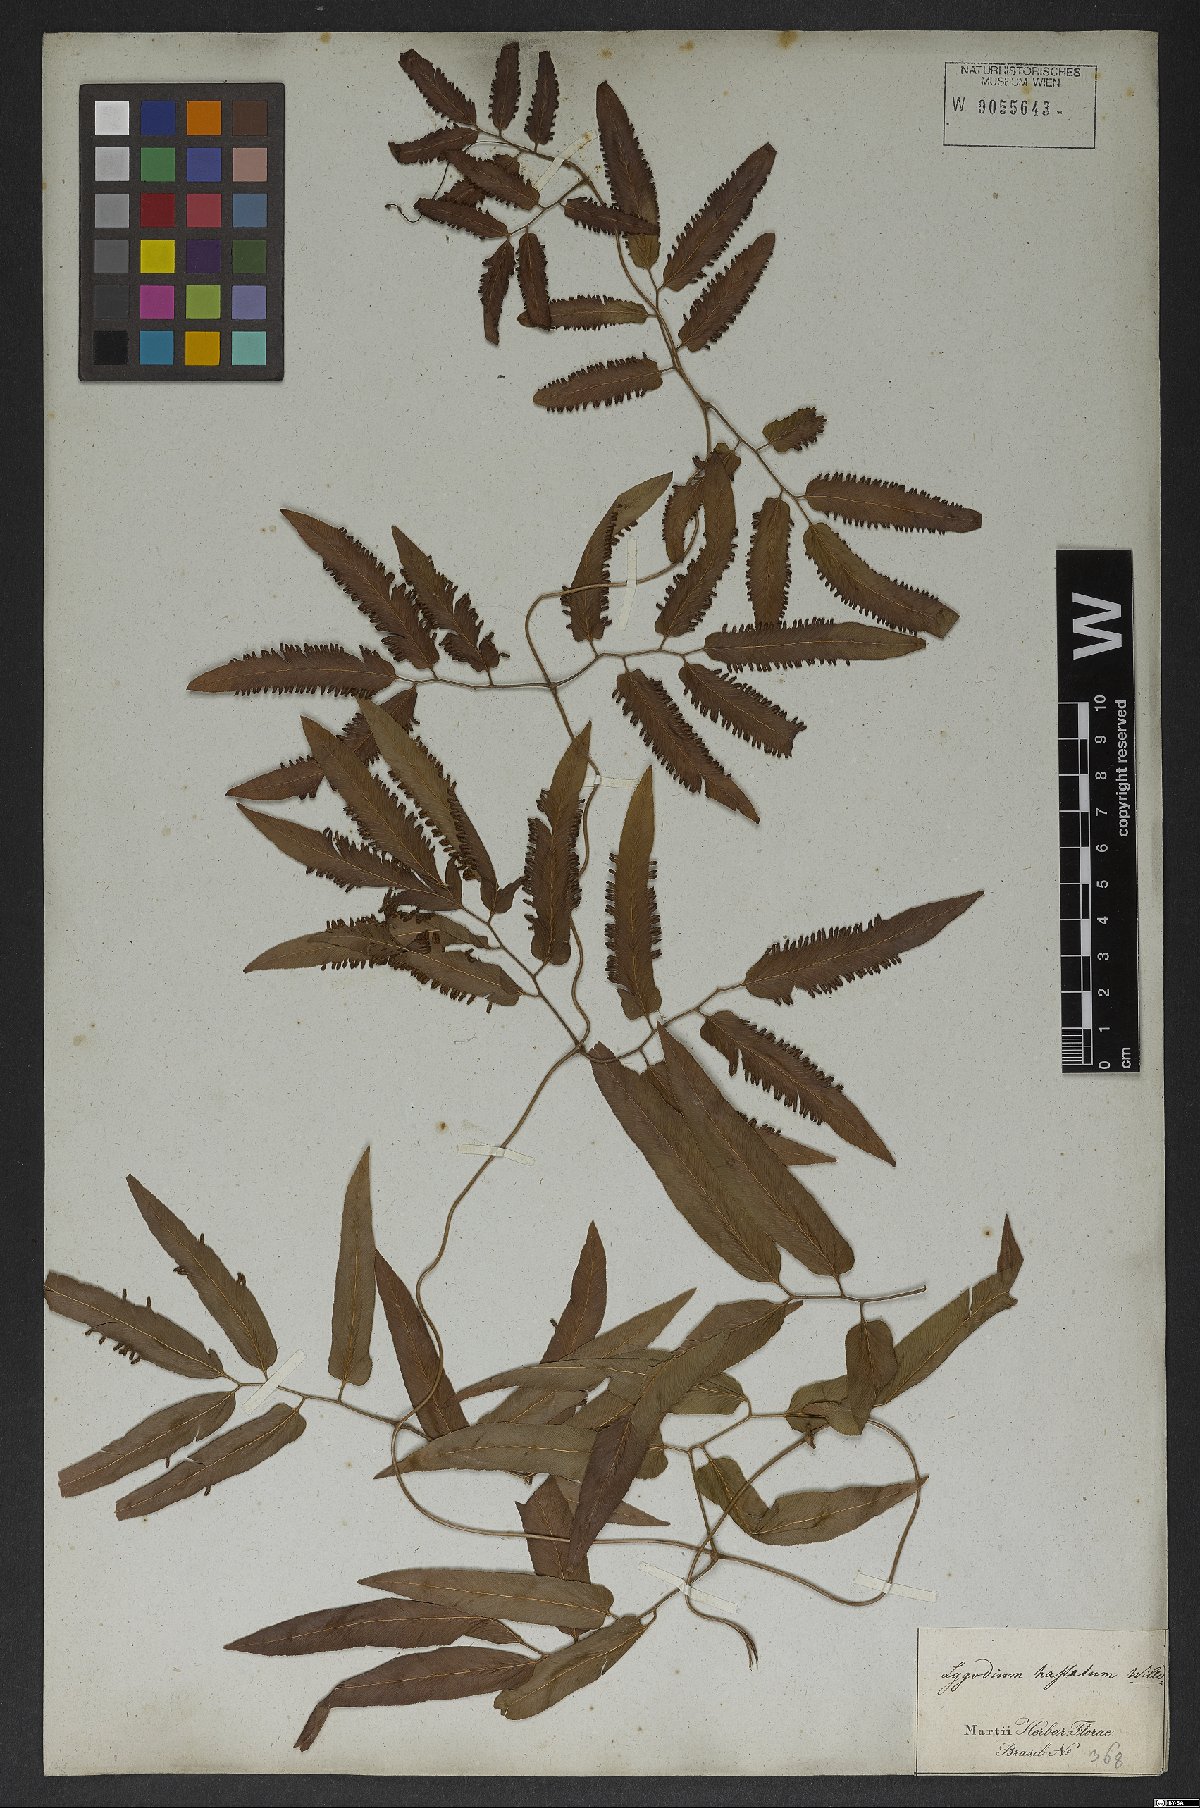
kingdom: Plantae
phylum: Tracheophyta
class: Polypodiopsida
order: Schizaeales
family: Lygodiaceae
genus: Lygodium
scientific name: Lygodium volubile
